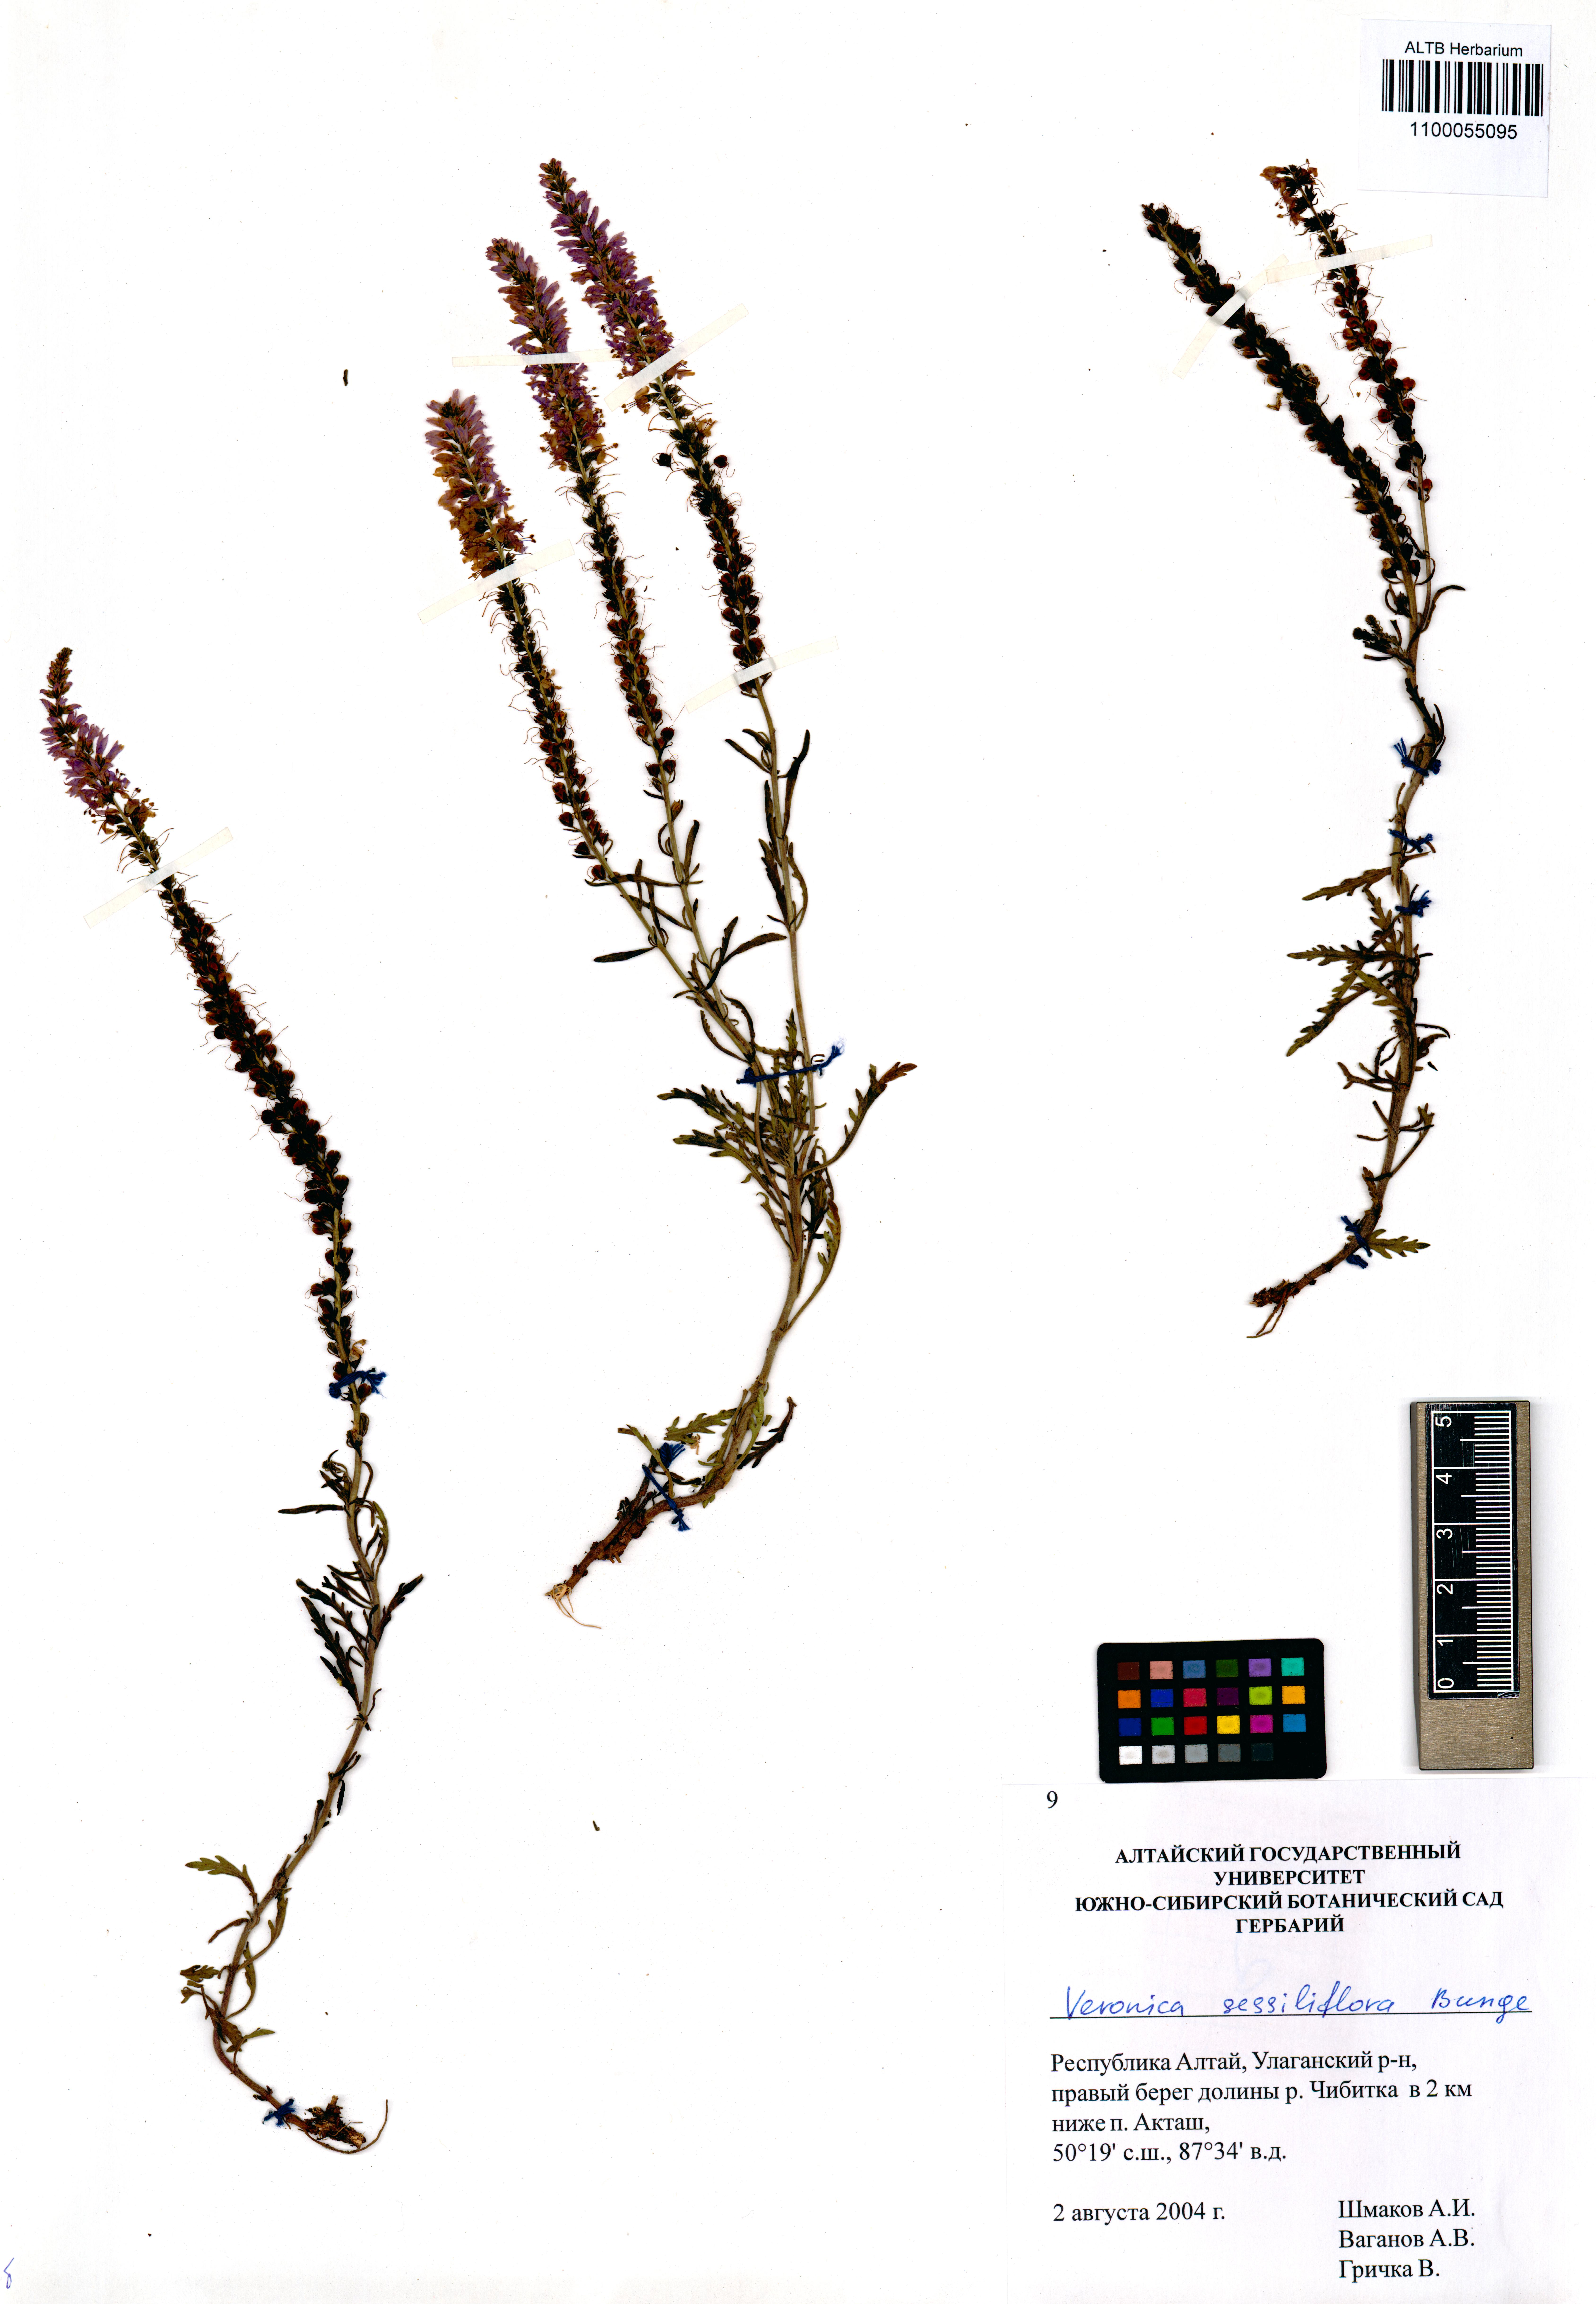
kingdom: Plantae
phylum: Tracheophyta
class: Magnoliopsida
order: Lamiales
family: Plantaginaceae
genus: Veronica
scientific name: Veronica sessiliflora
